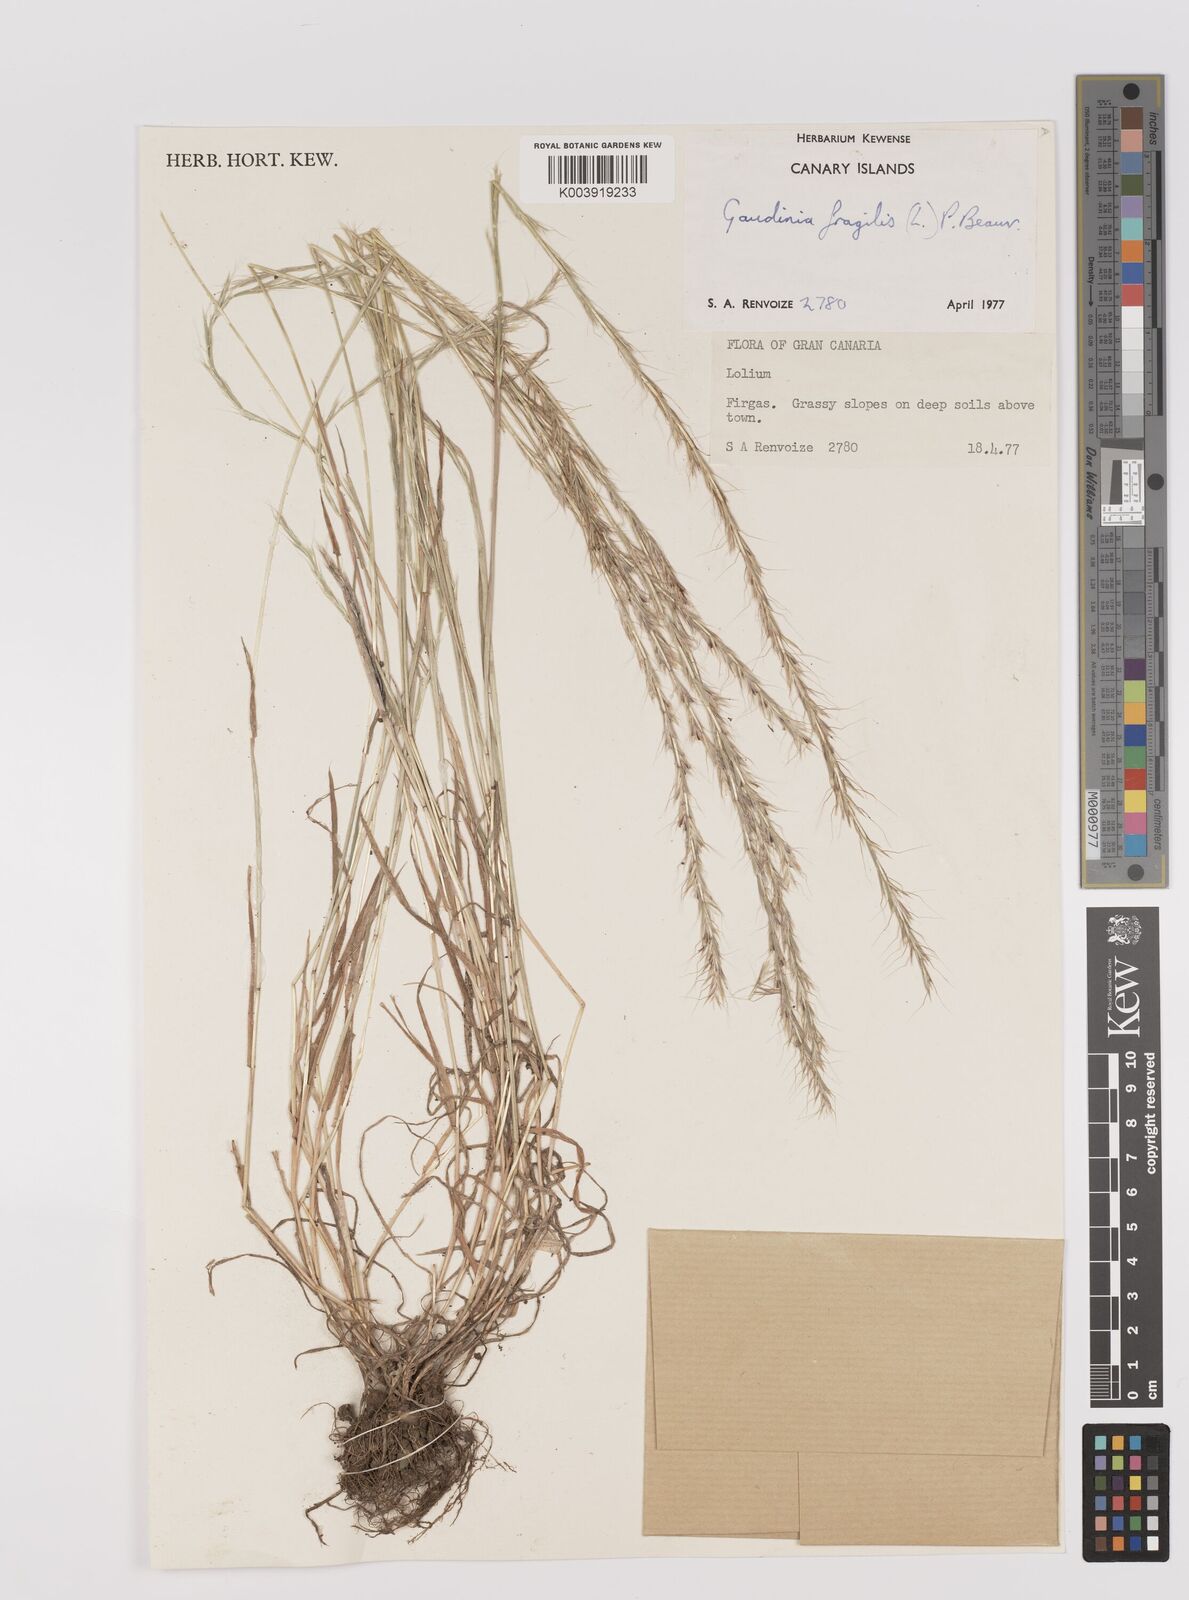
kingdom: Plantae
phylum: Tracheophyta
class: Liliopsida
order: Poales
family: Poaceae
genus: Gaudinia
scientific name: Gaudinia fragilis
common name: French oat-grass
